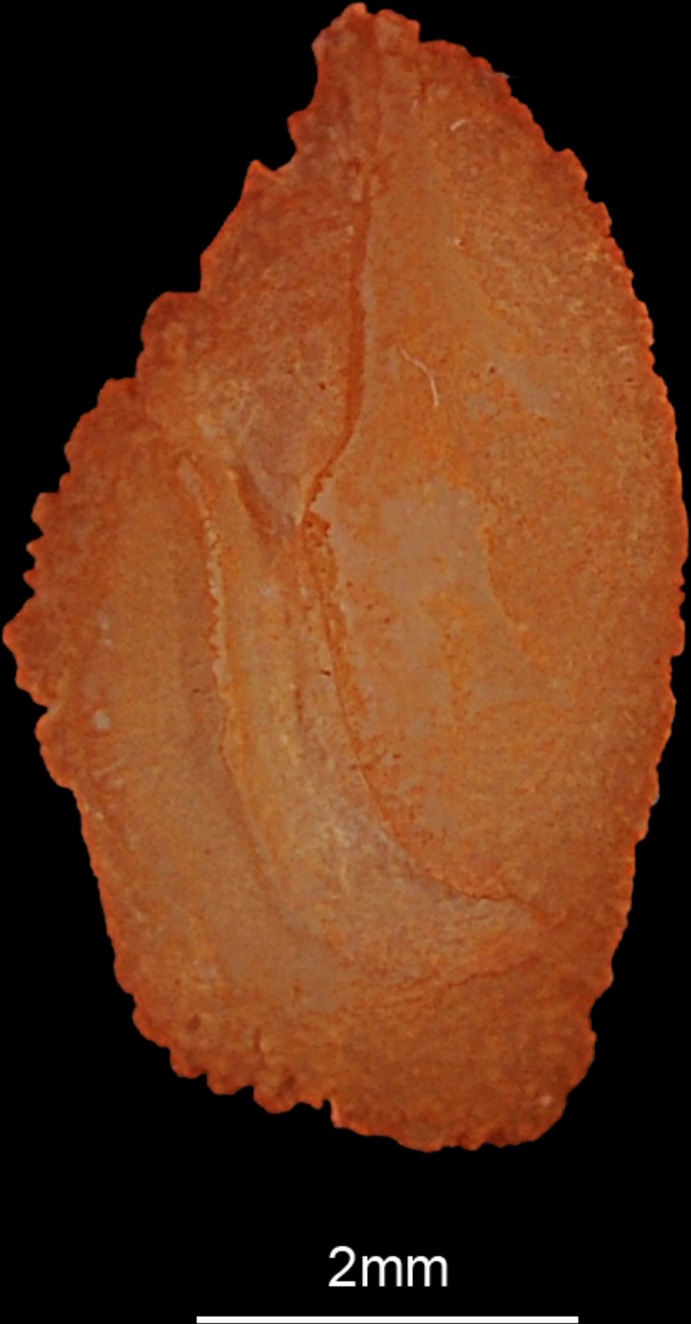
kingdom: Animalia
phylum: Chordata
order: Perciformes
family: Sparidae
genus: Rhabdosargus
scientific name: Rhabdosargus sarba
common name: Goldlined seabream
